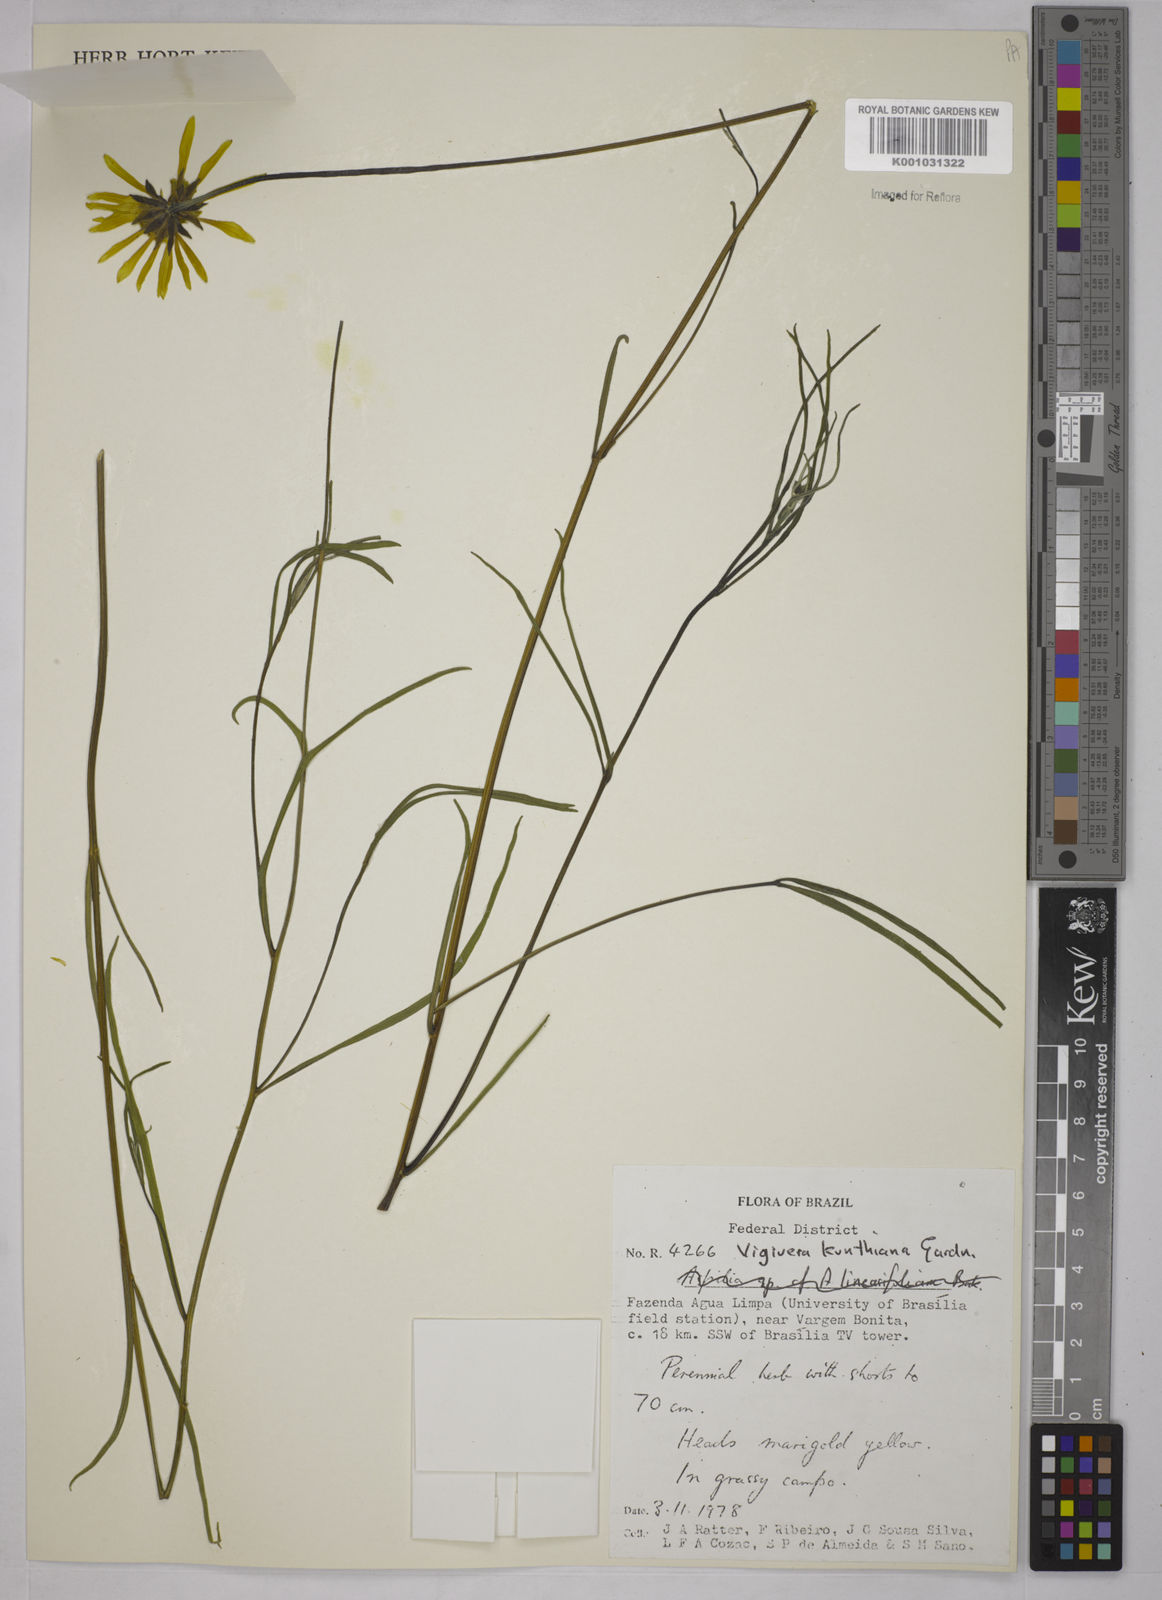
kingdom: Plantae
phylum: Tracheophyta
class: Magnoliopsida
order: Asterales
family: Asteraceae
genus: Aldama
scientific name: Aldama kunthiana
